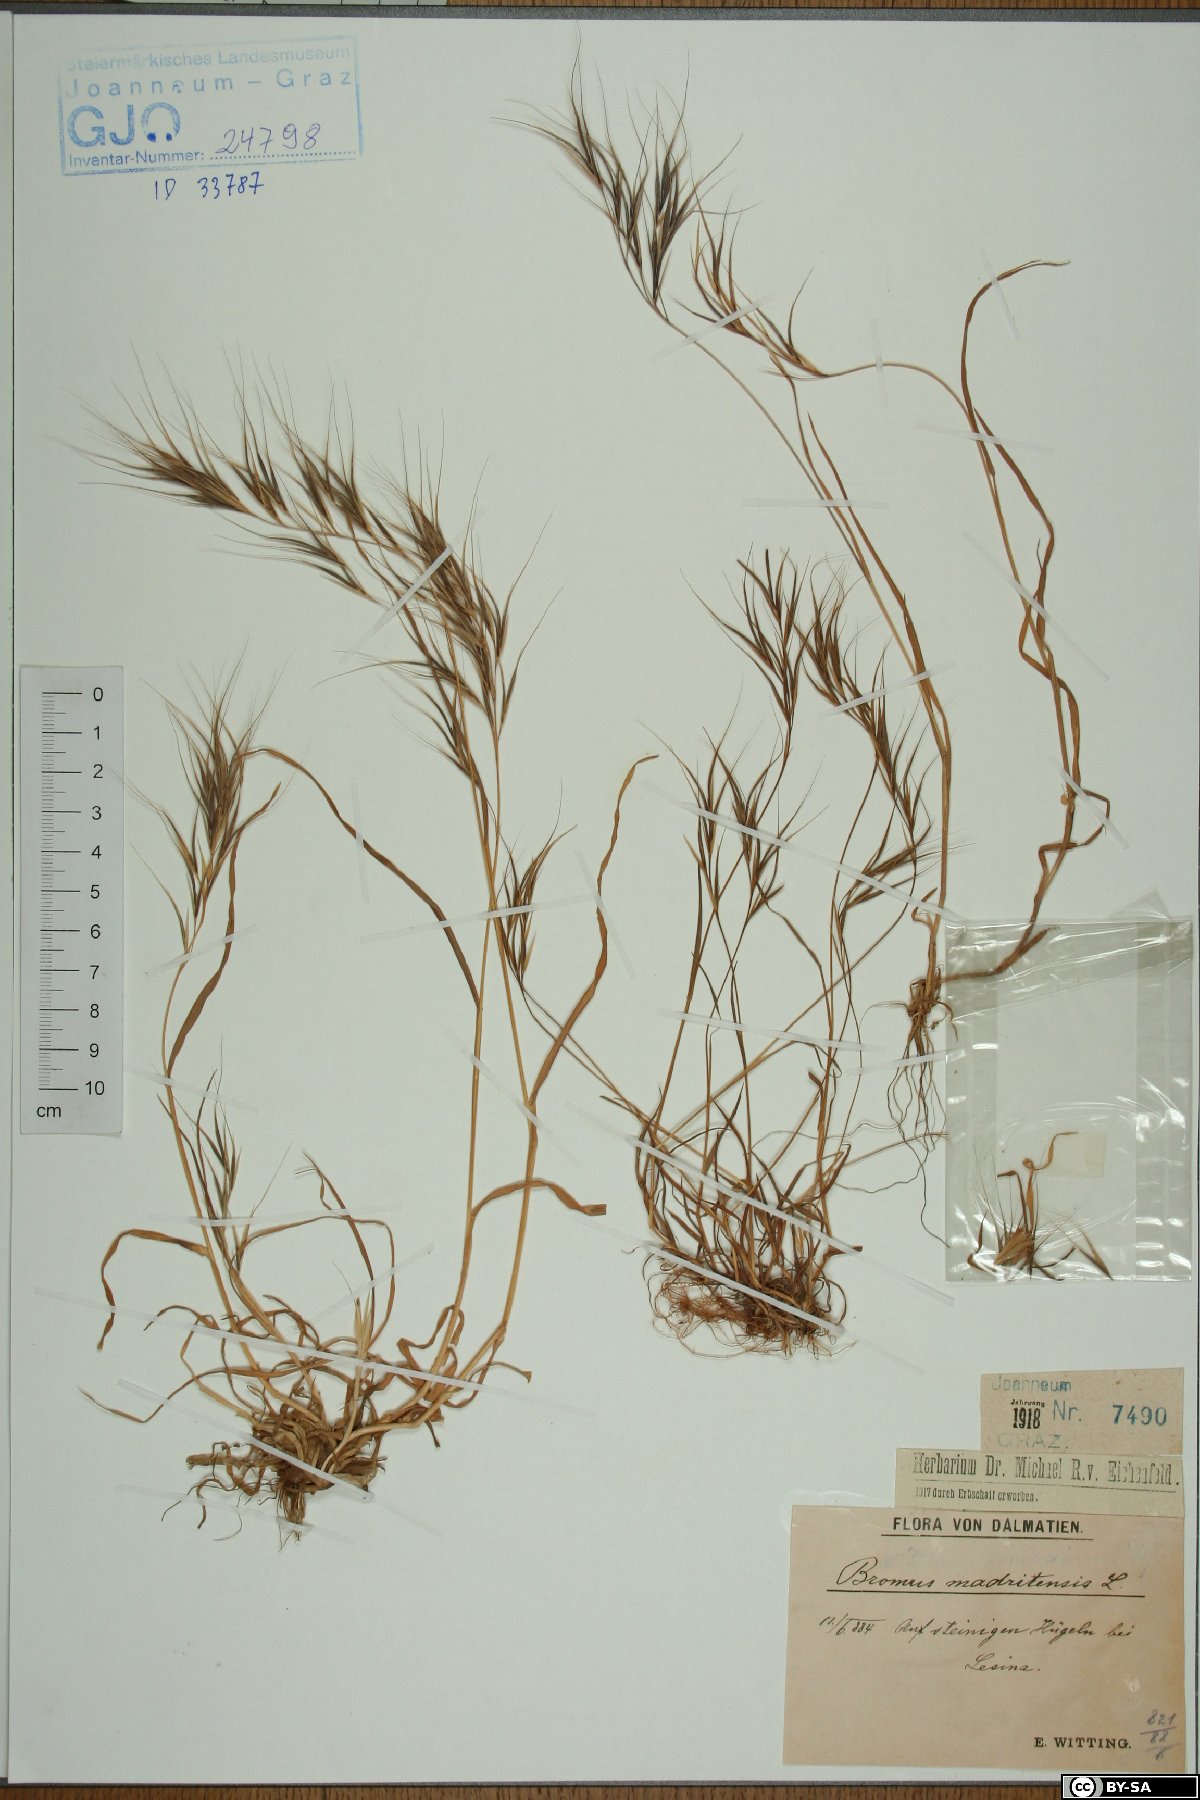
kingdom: Plantae
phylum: Tracheophyta
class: Liliopsida
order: Poales
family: Poaceae
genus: Bromus
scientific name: Bromus madritensis
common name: Compact brome
